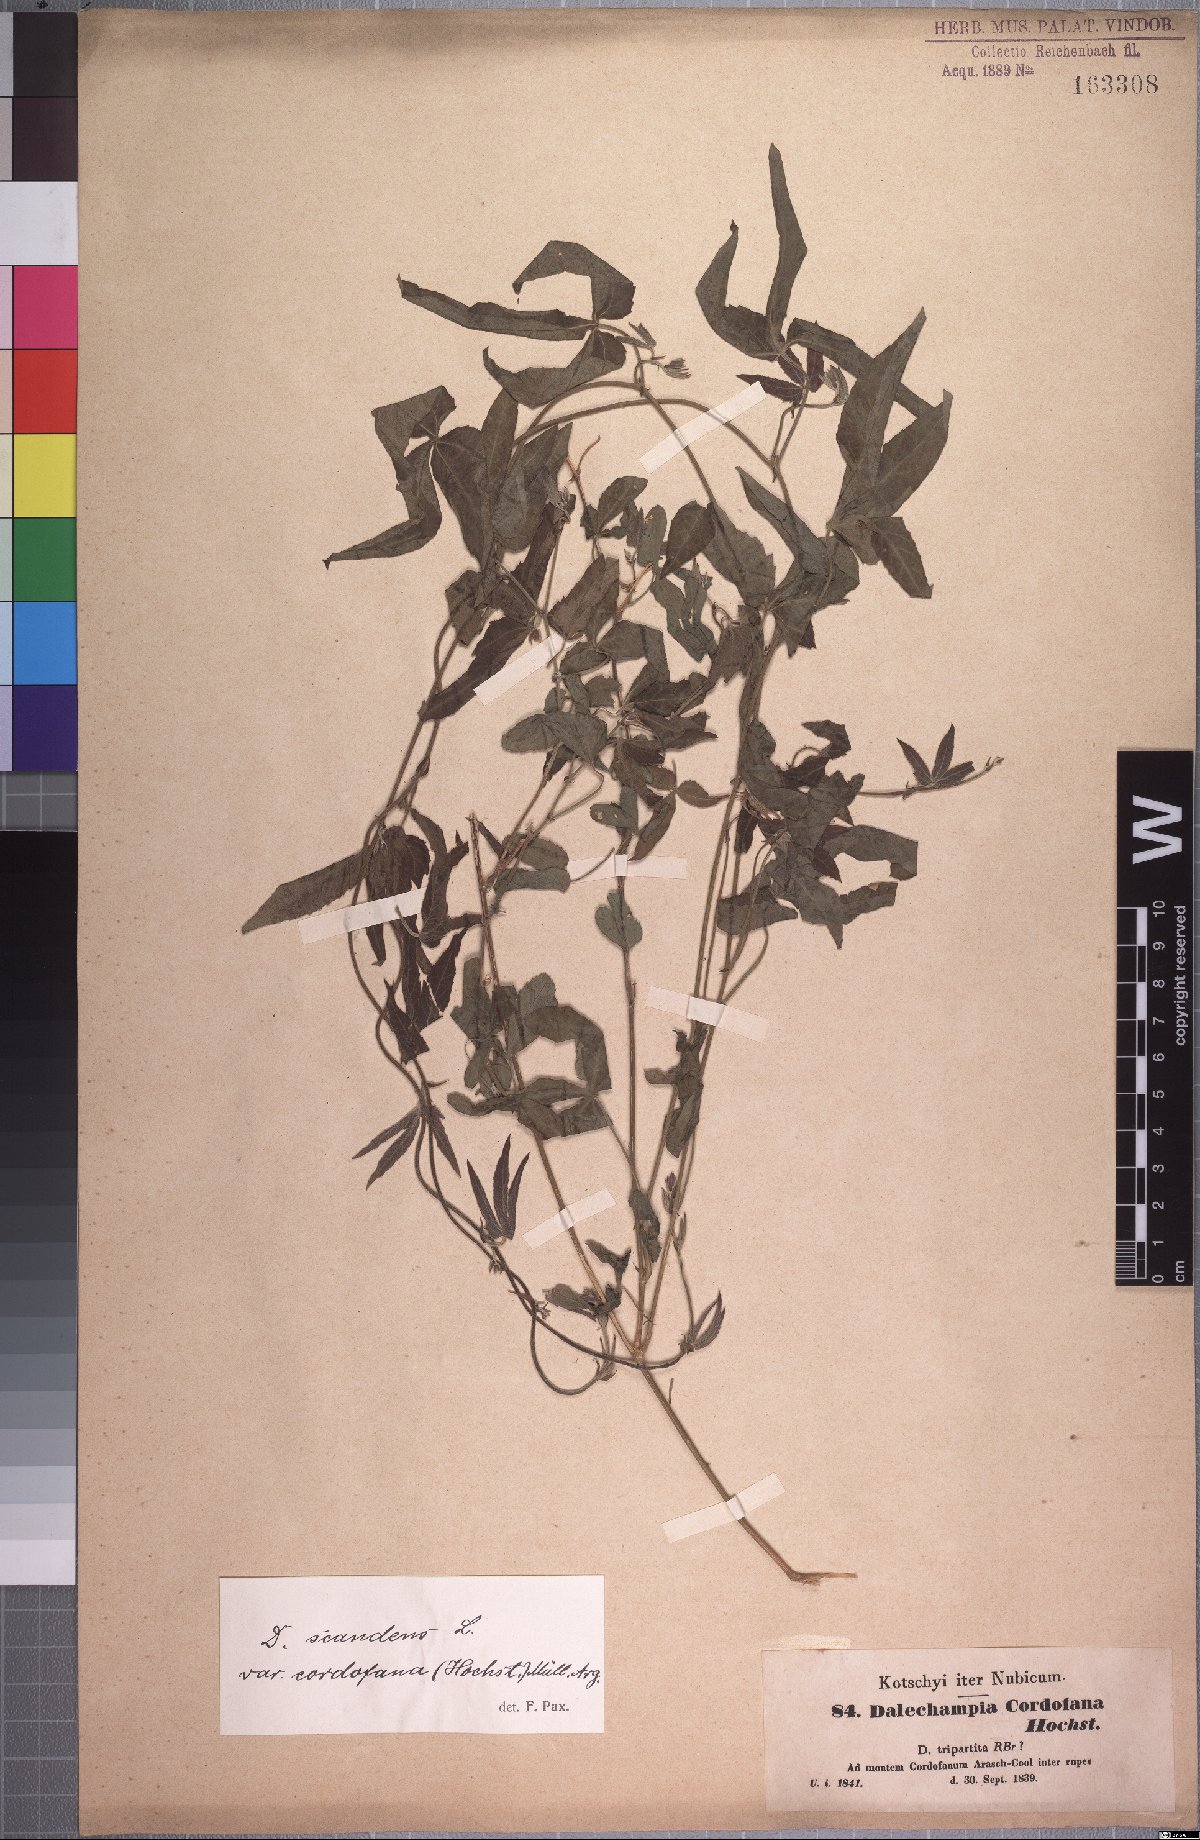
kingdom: Plantae
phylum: Tracheophyta
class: Magnoliopsida
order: Malpighiales
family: Euphorbiaceae
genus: Dalechampia
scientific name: Dalechampia scandens
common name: Spurgecreeper
